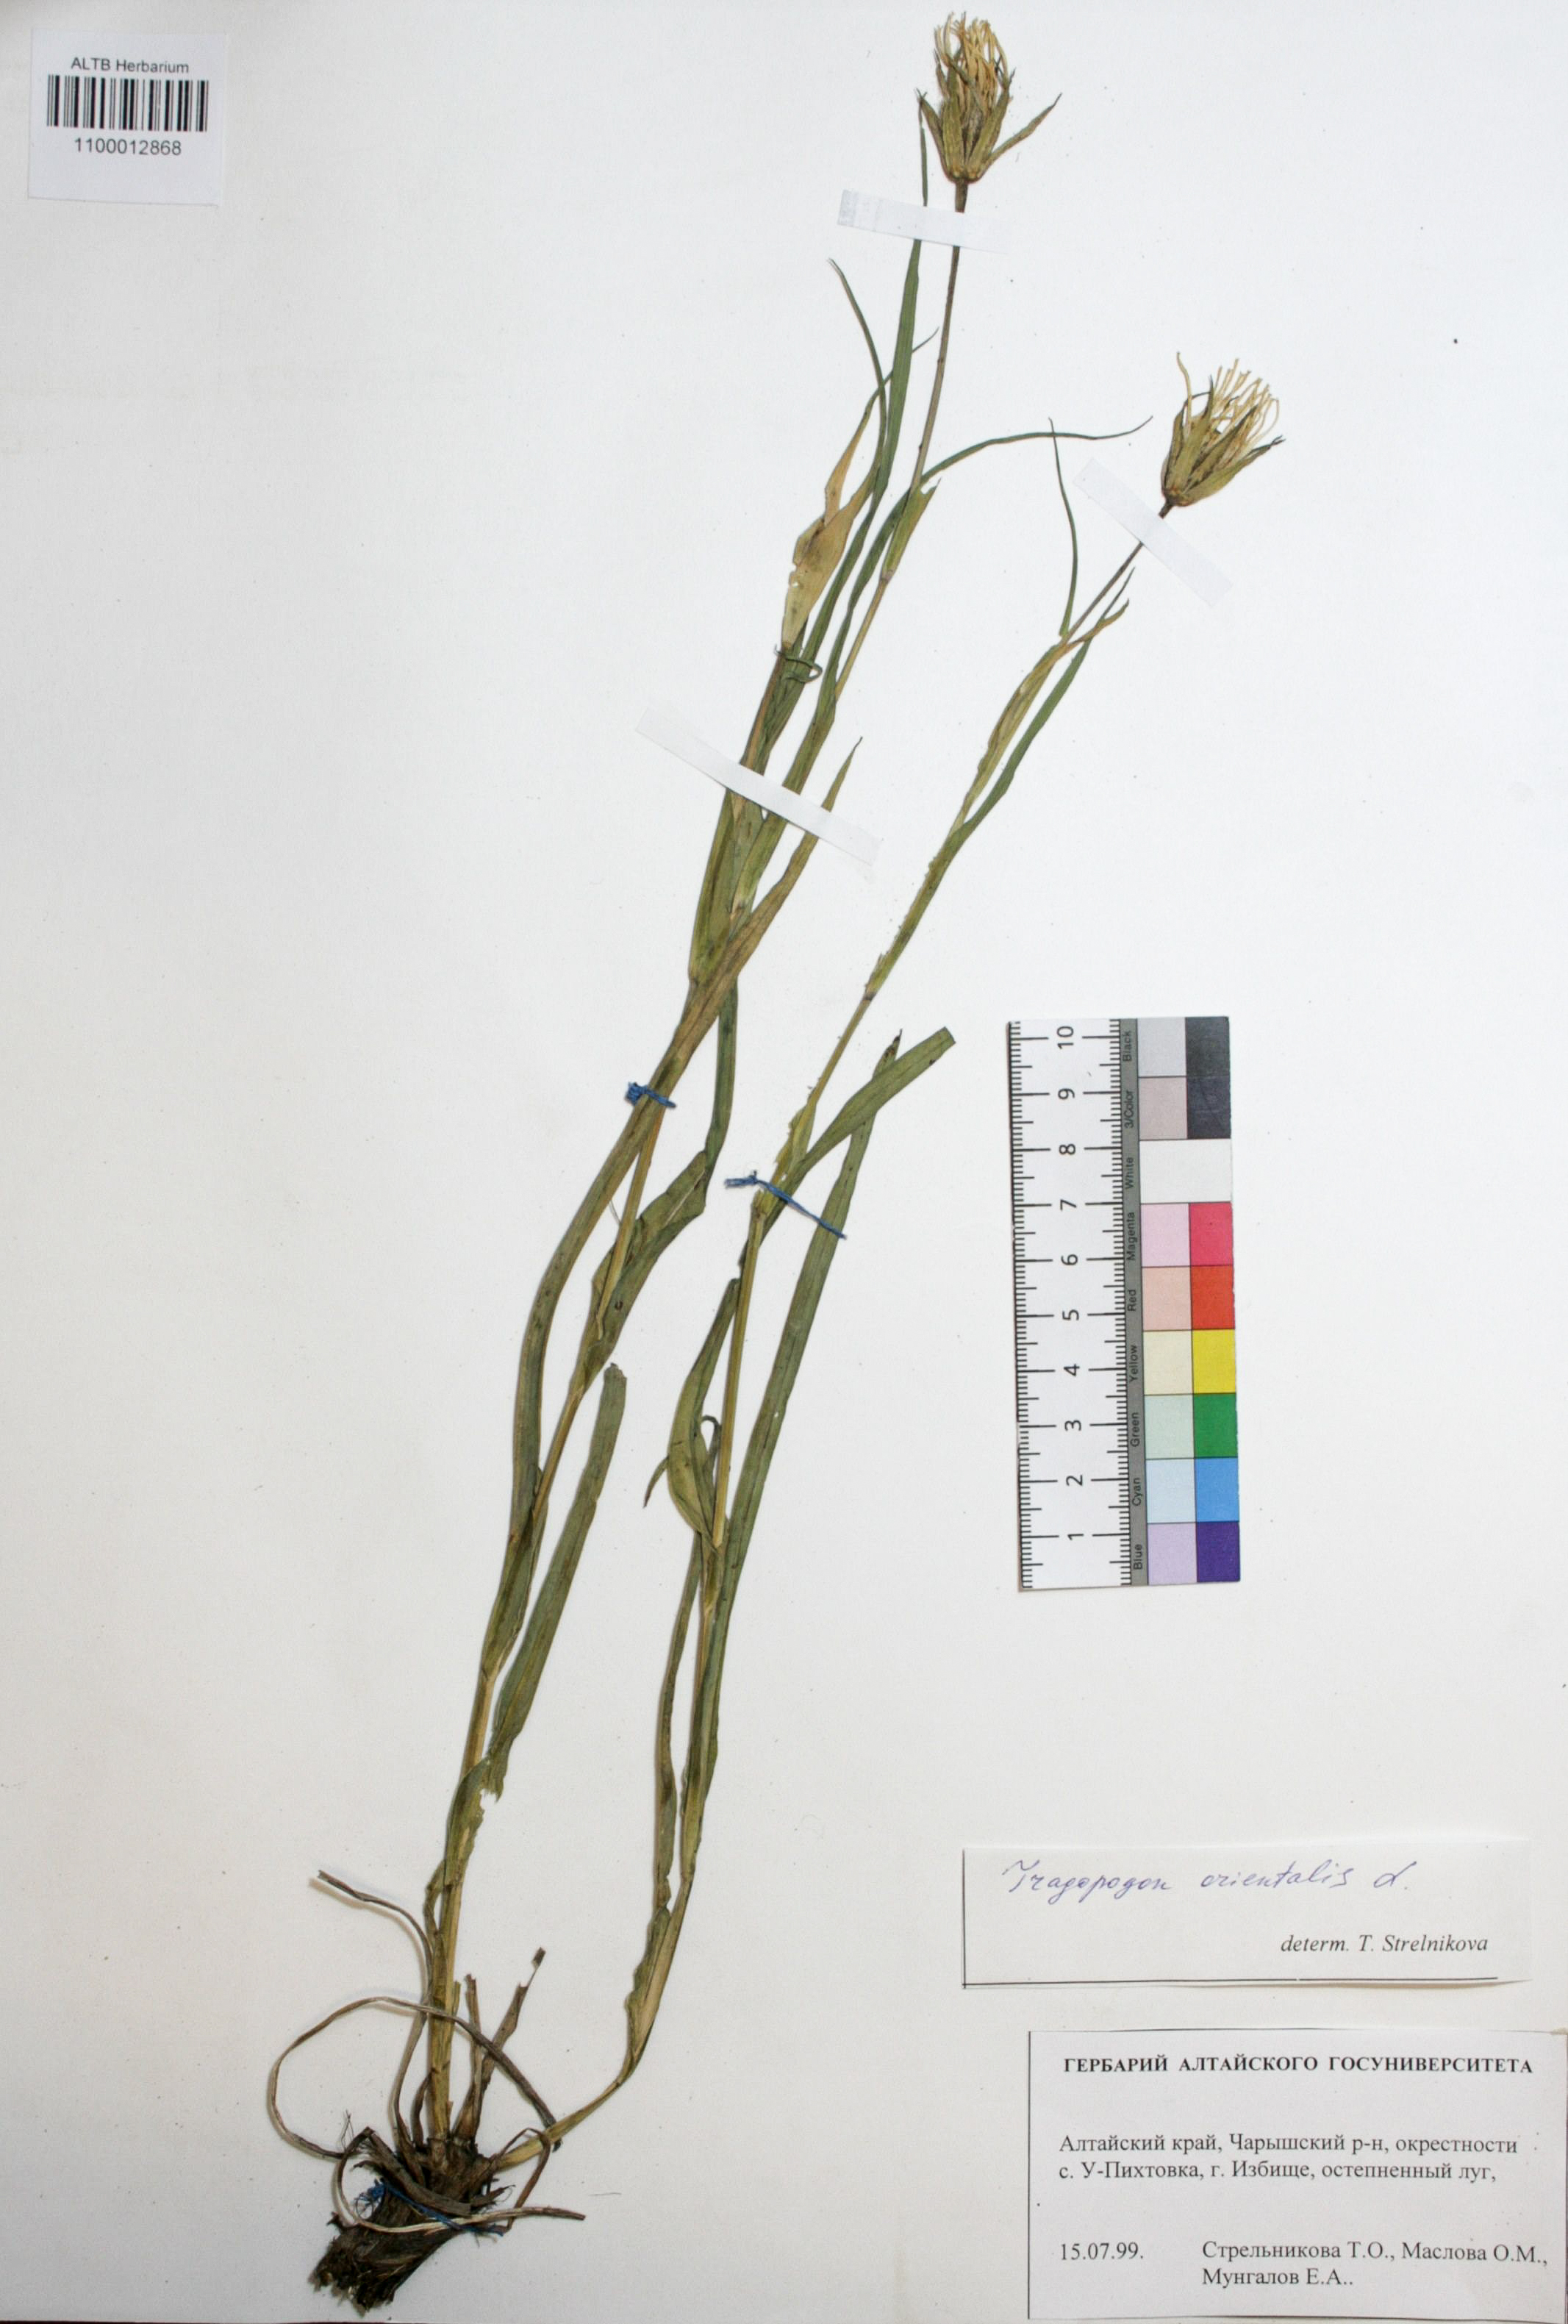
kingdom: Plantae
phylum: Tracheophyta
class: Magnoliopsida
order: Asterales
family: Asteraceae
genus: Tragopogon
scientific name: Tragopogon orientalis
